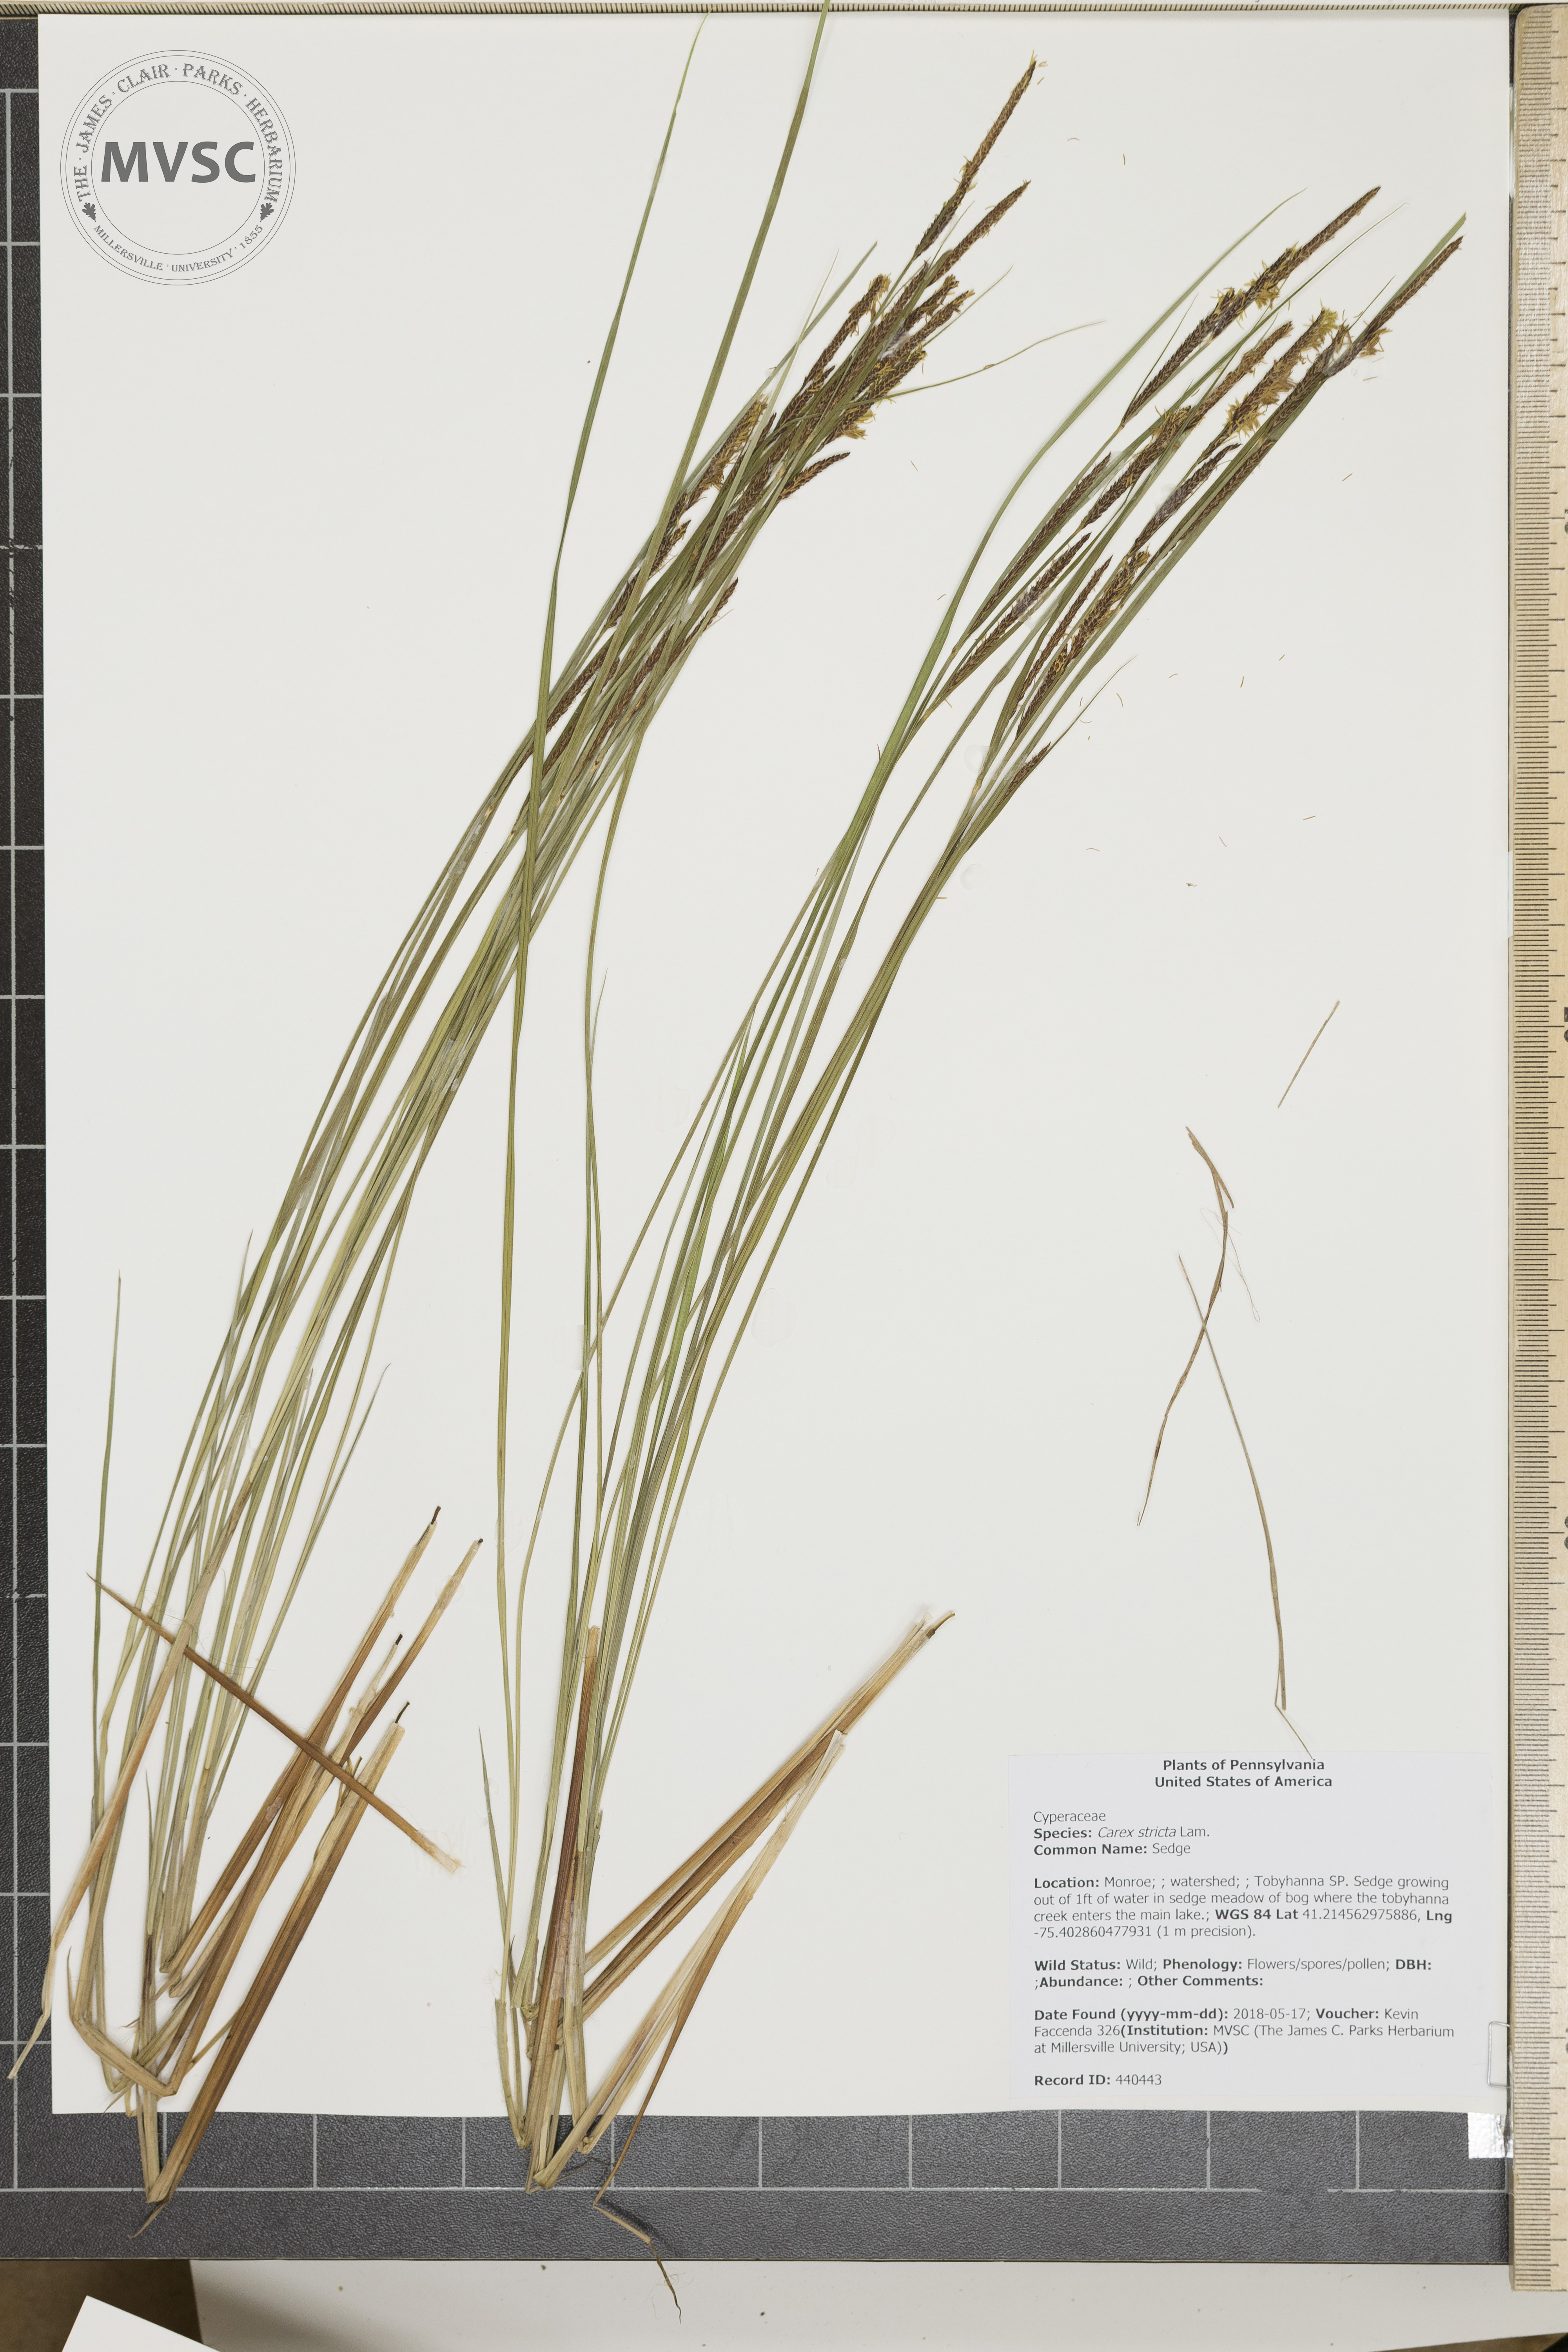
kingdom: Plantae
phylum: Tracheophyta
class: Liliopsida
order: Poales
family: Cyperaceae
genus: Carex
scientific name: Carex stricta
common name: Sedge
